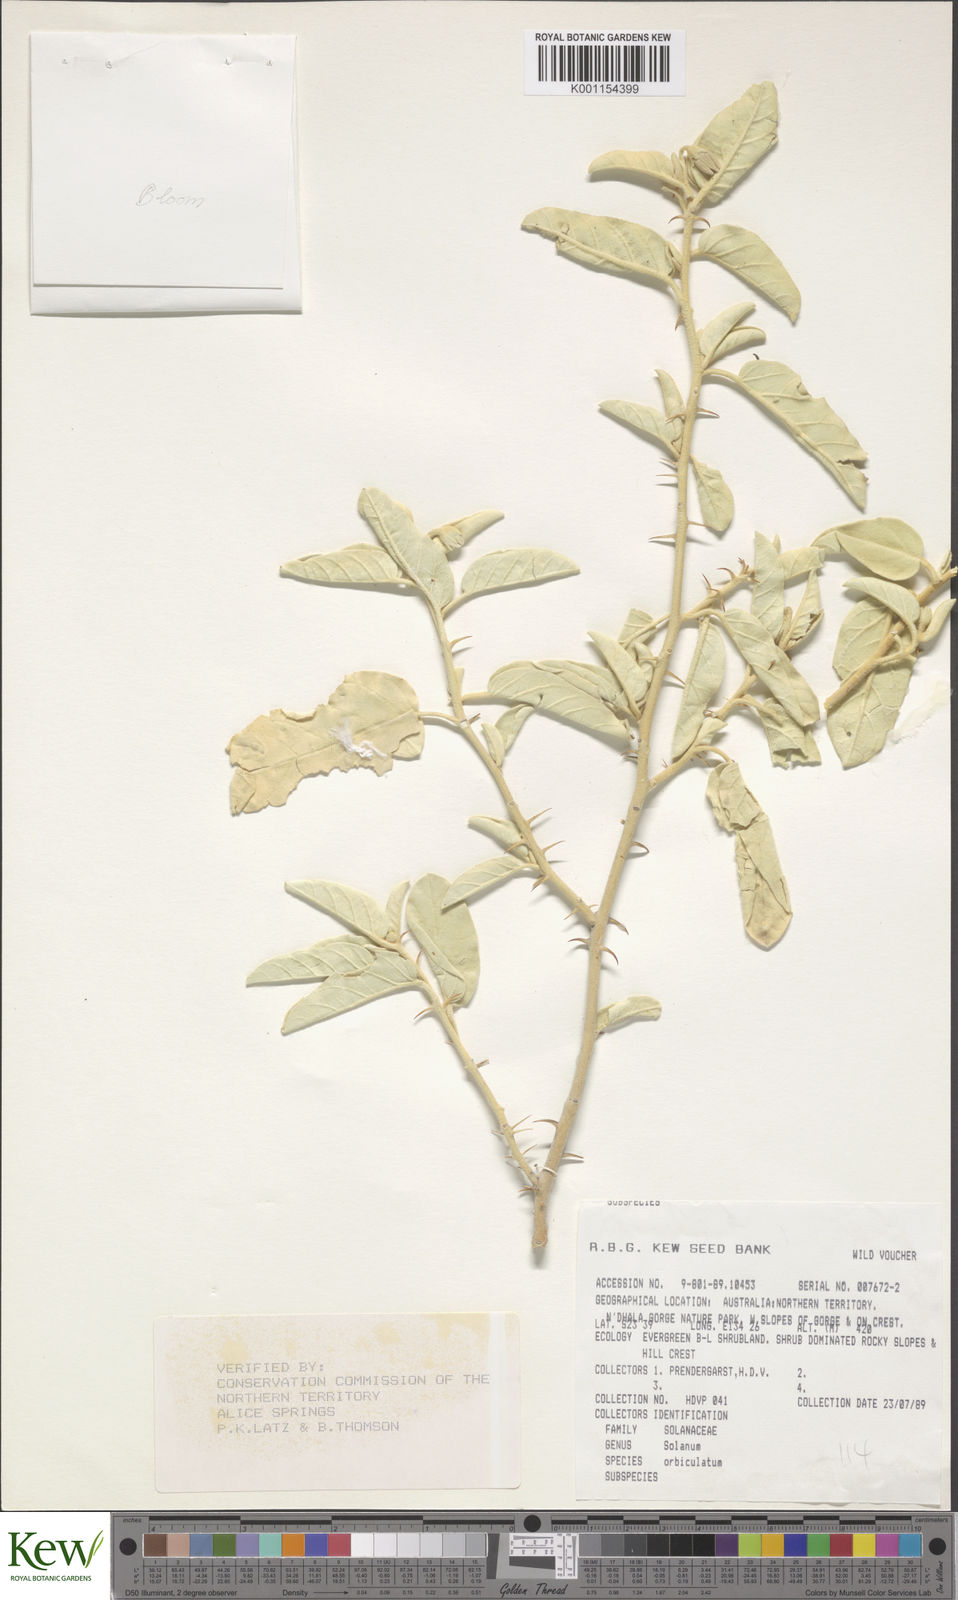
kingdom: Plantae
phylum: Tracheophyta
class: Magnoliopsida
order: Solanales
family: Solanaceae
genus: Solanum
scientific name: Solanum orbiculatum
